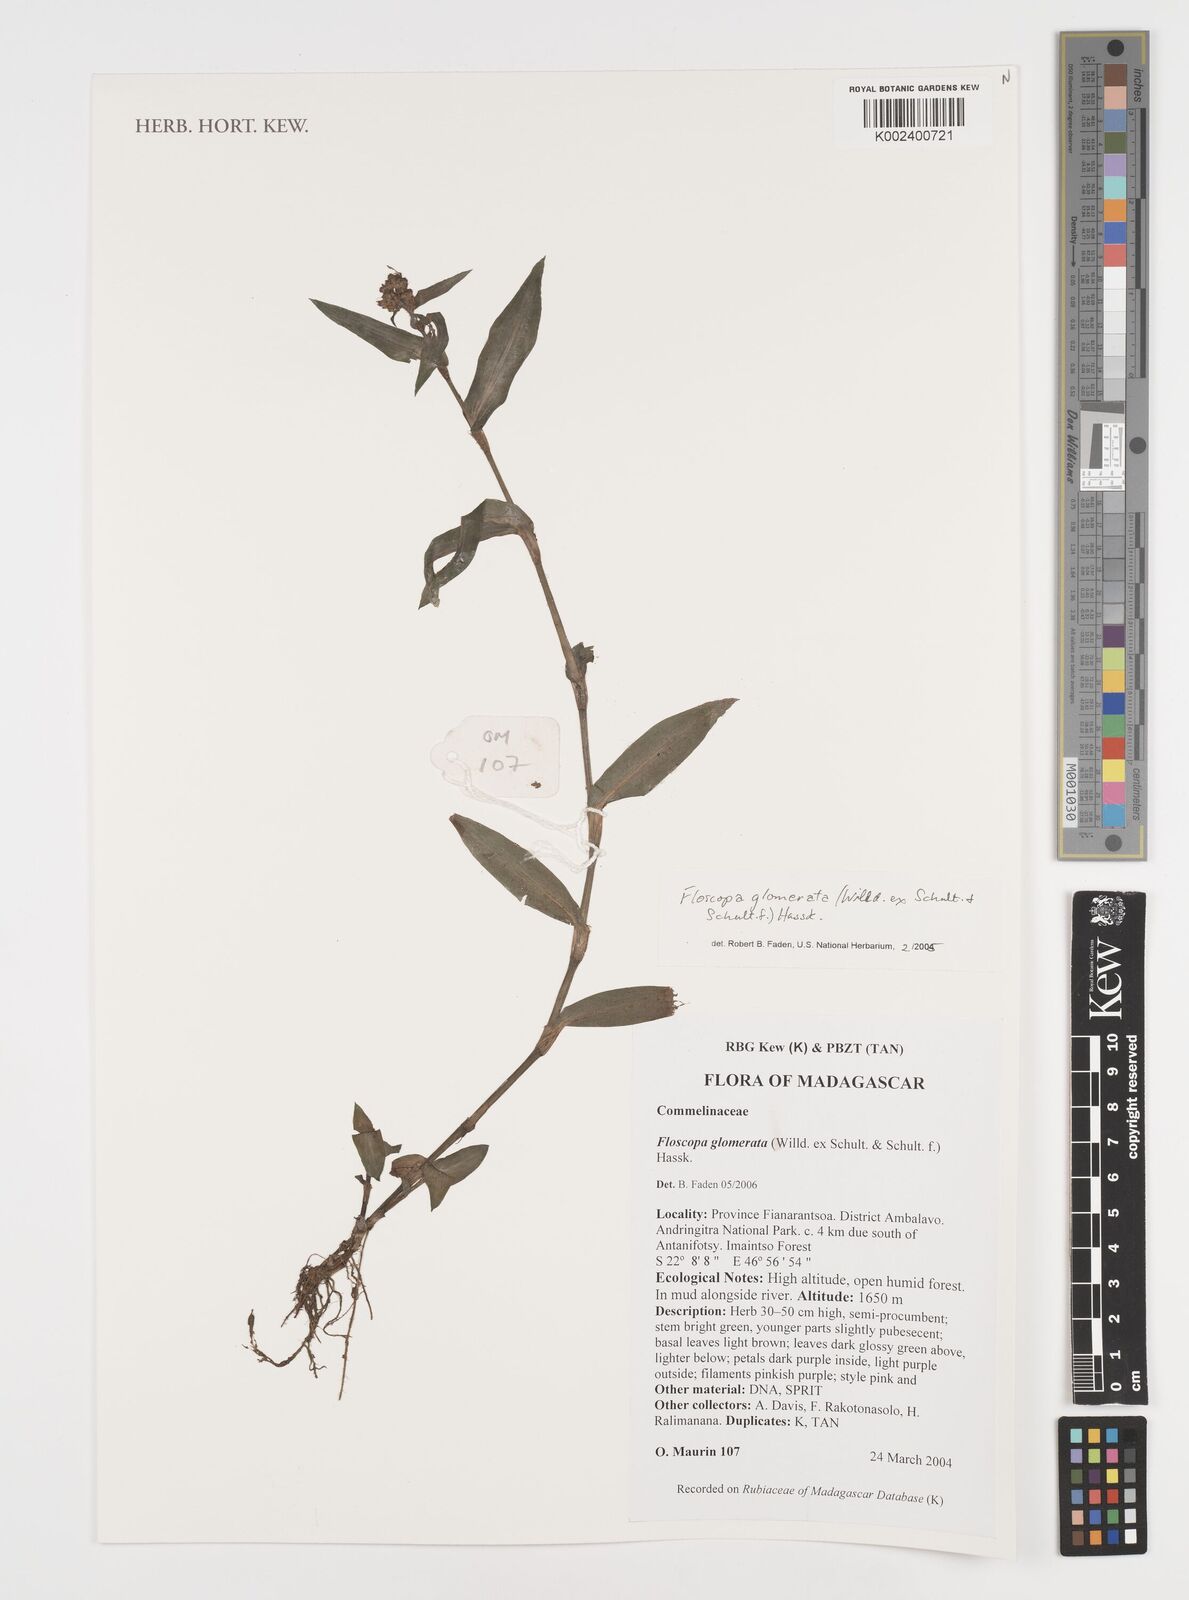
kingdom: Plantae
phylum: Tracheophyta
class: Liliopsida
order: Commelinales
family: Commelinaceae
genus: Floscopa
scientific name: Floscopa glomerata
